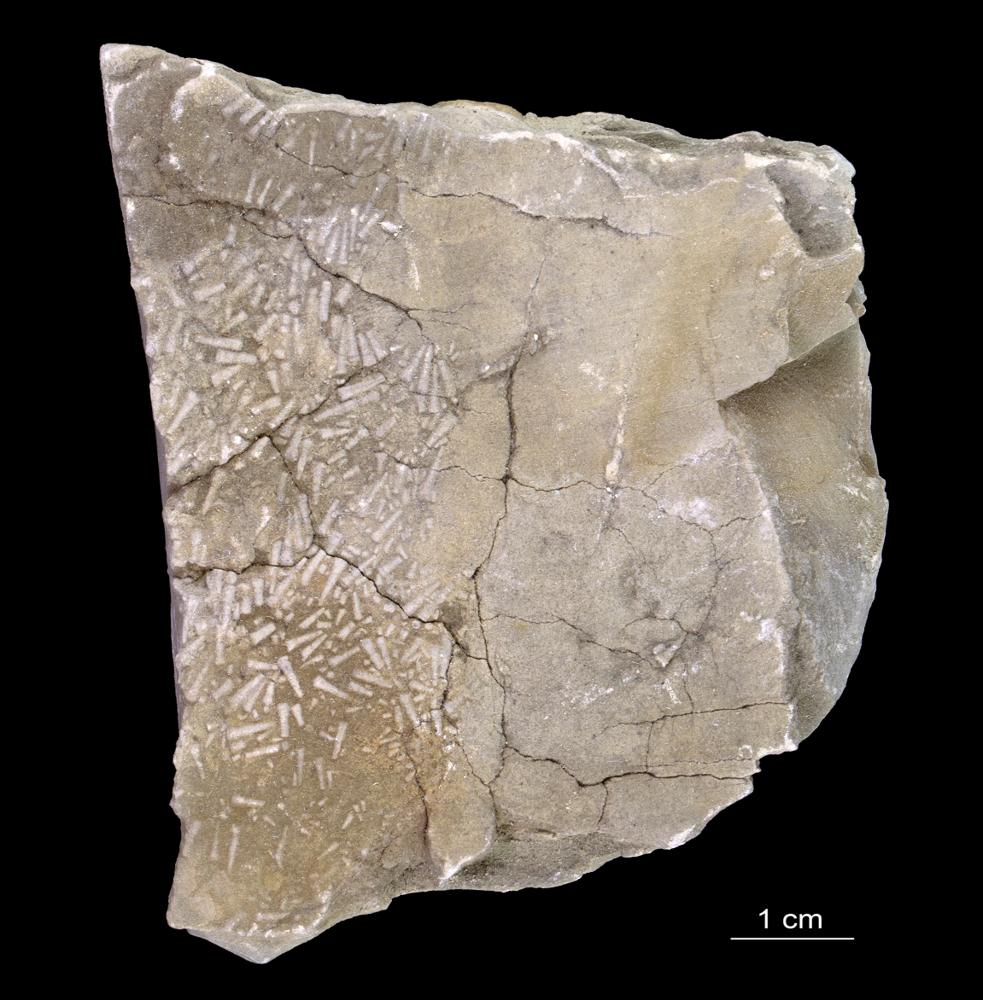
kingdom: Animalia
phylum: Annelida
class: Polychaeta
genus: Volborthella
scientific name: Volborthella tenuis
